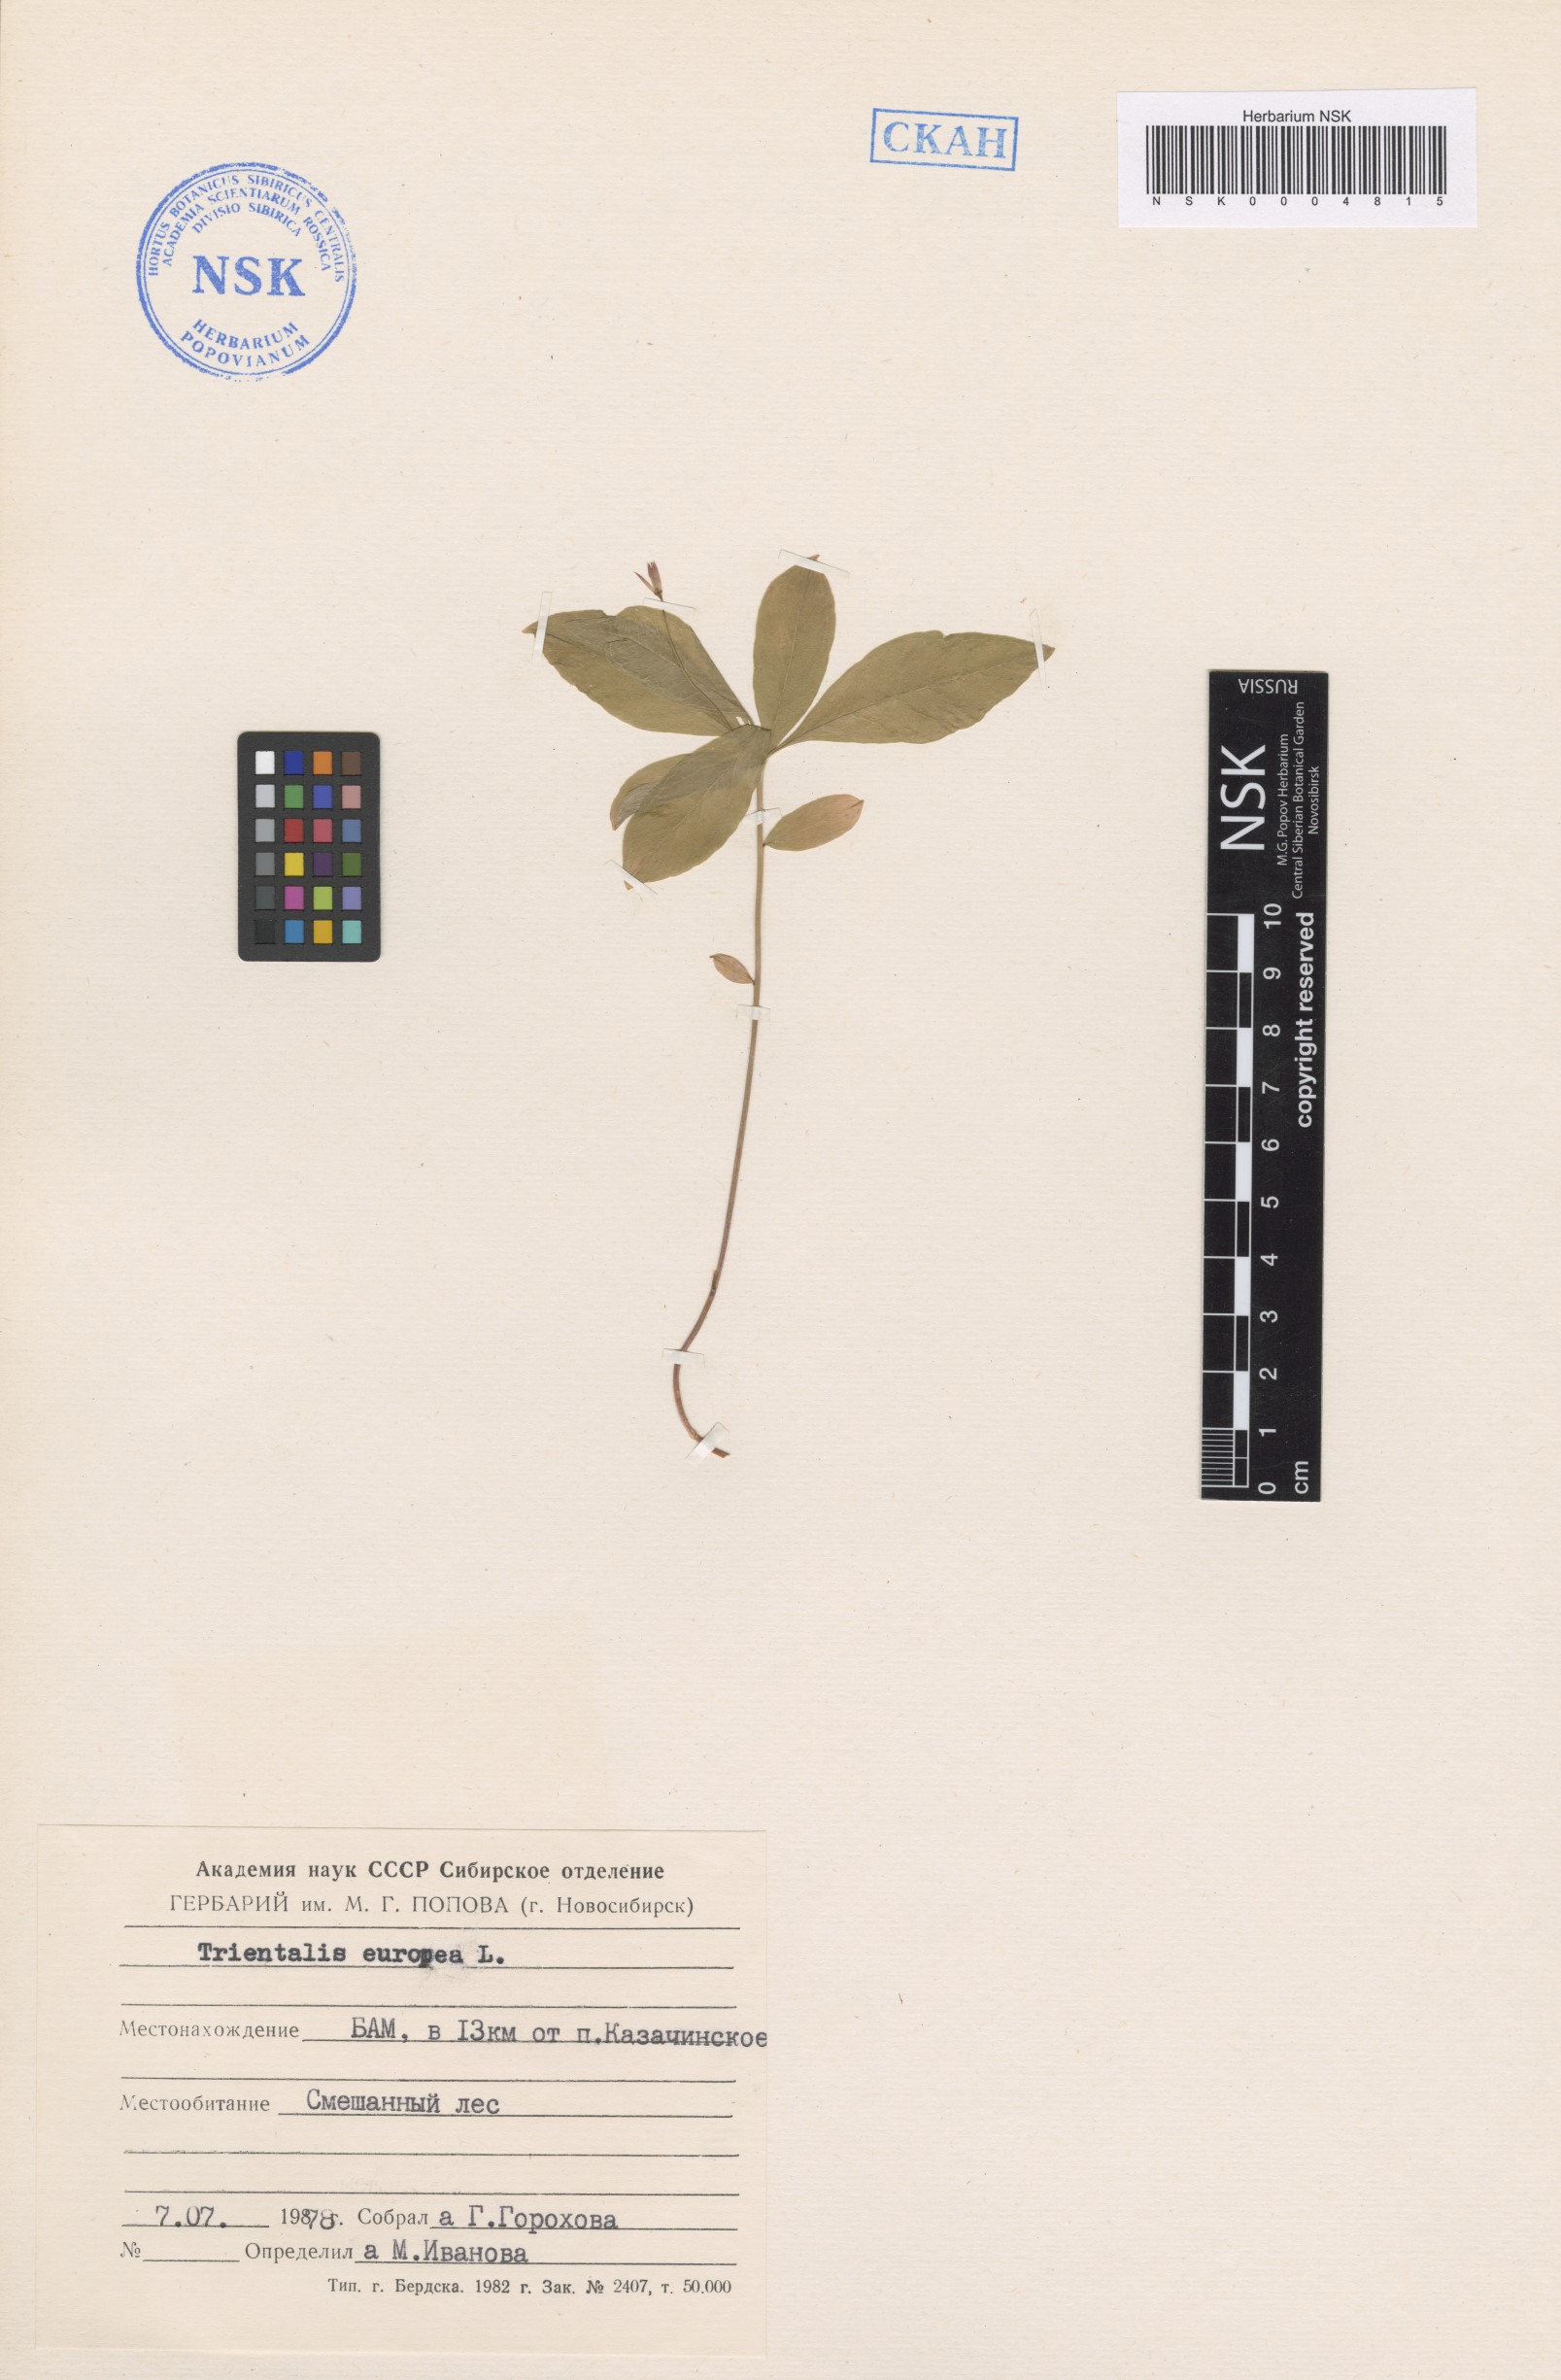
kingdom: Plantae
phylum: Tracheophyta
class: Magnoliopsida
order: Ericales
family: Primulaceae
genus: Lysimachia
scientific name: Lysimachia europaea
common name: Arctic starflower
